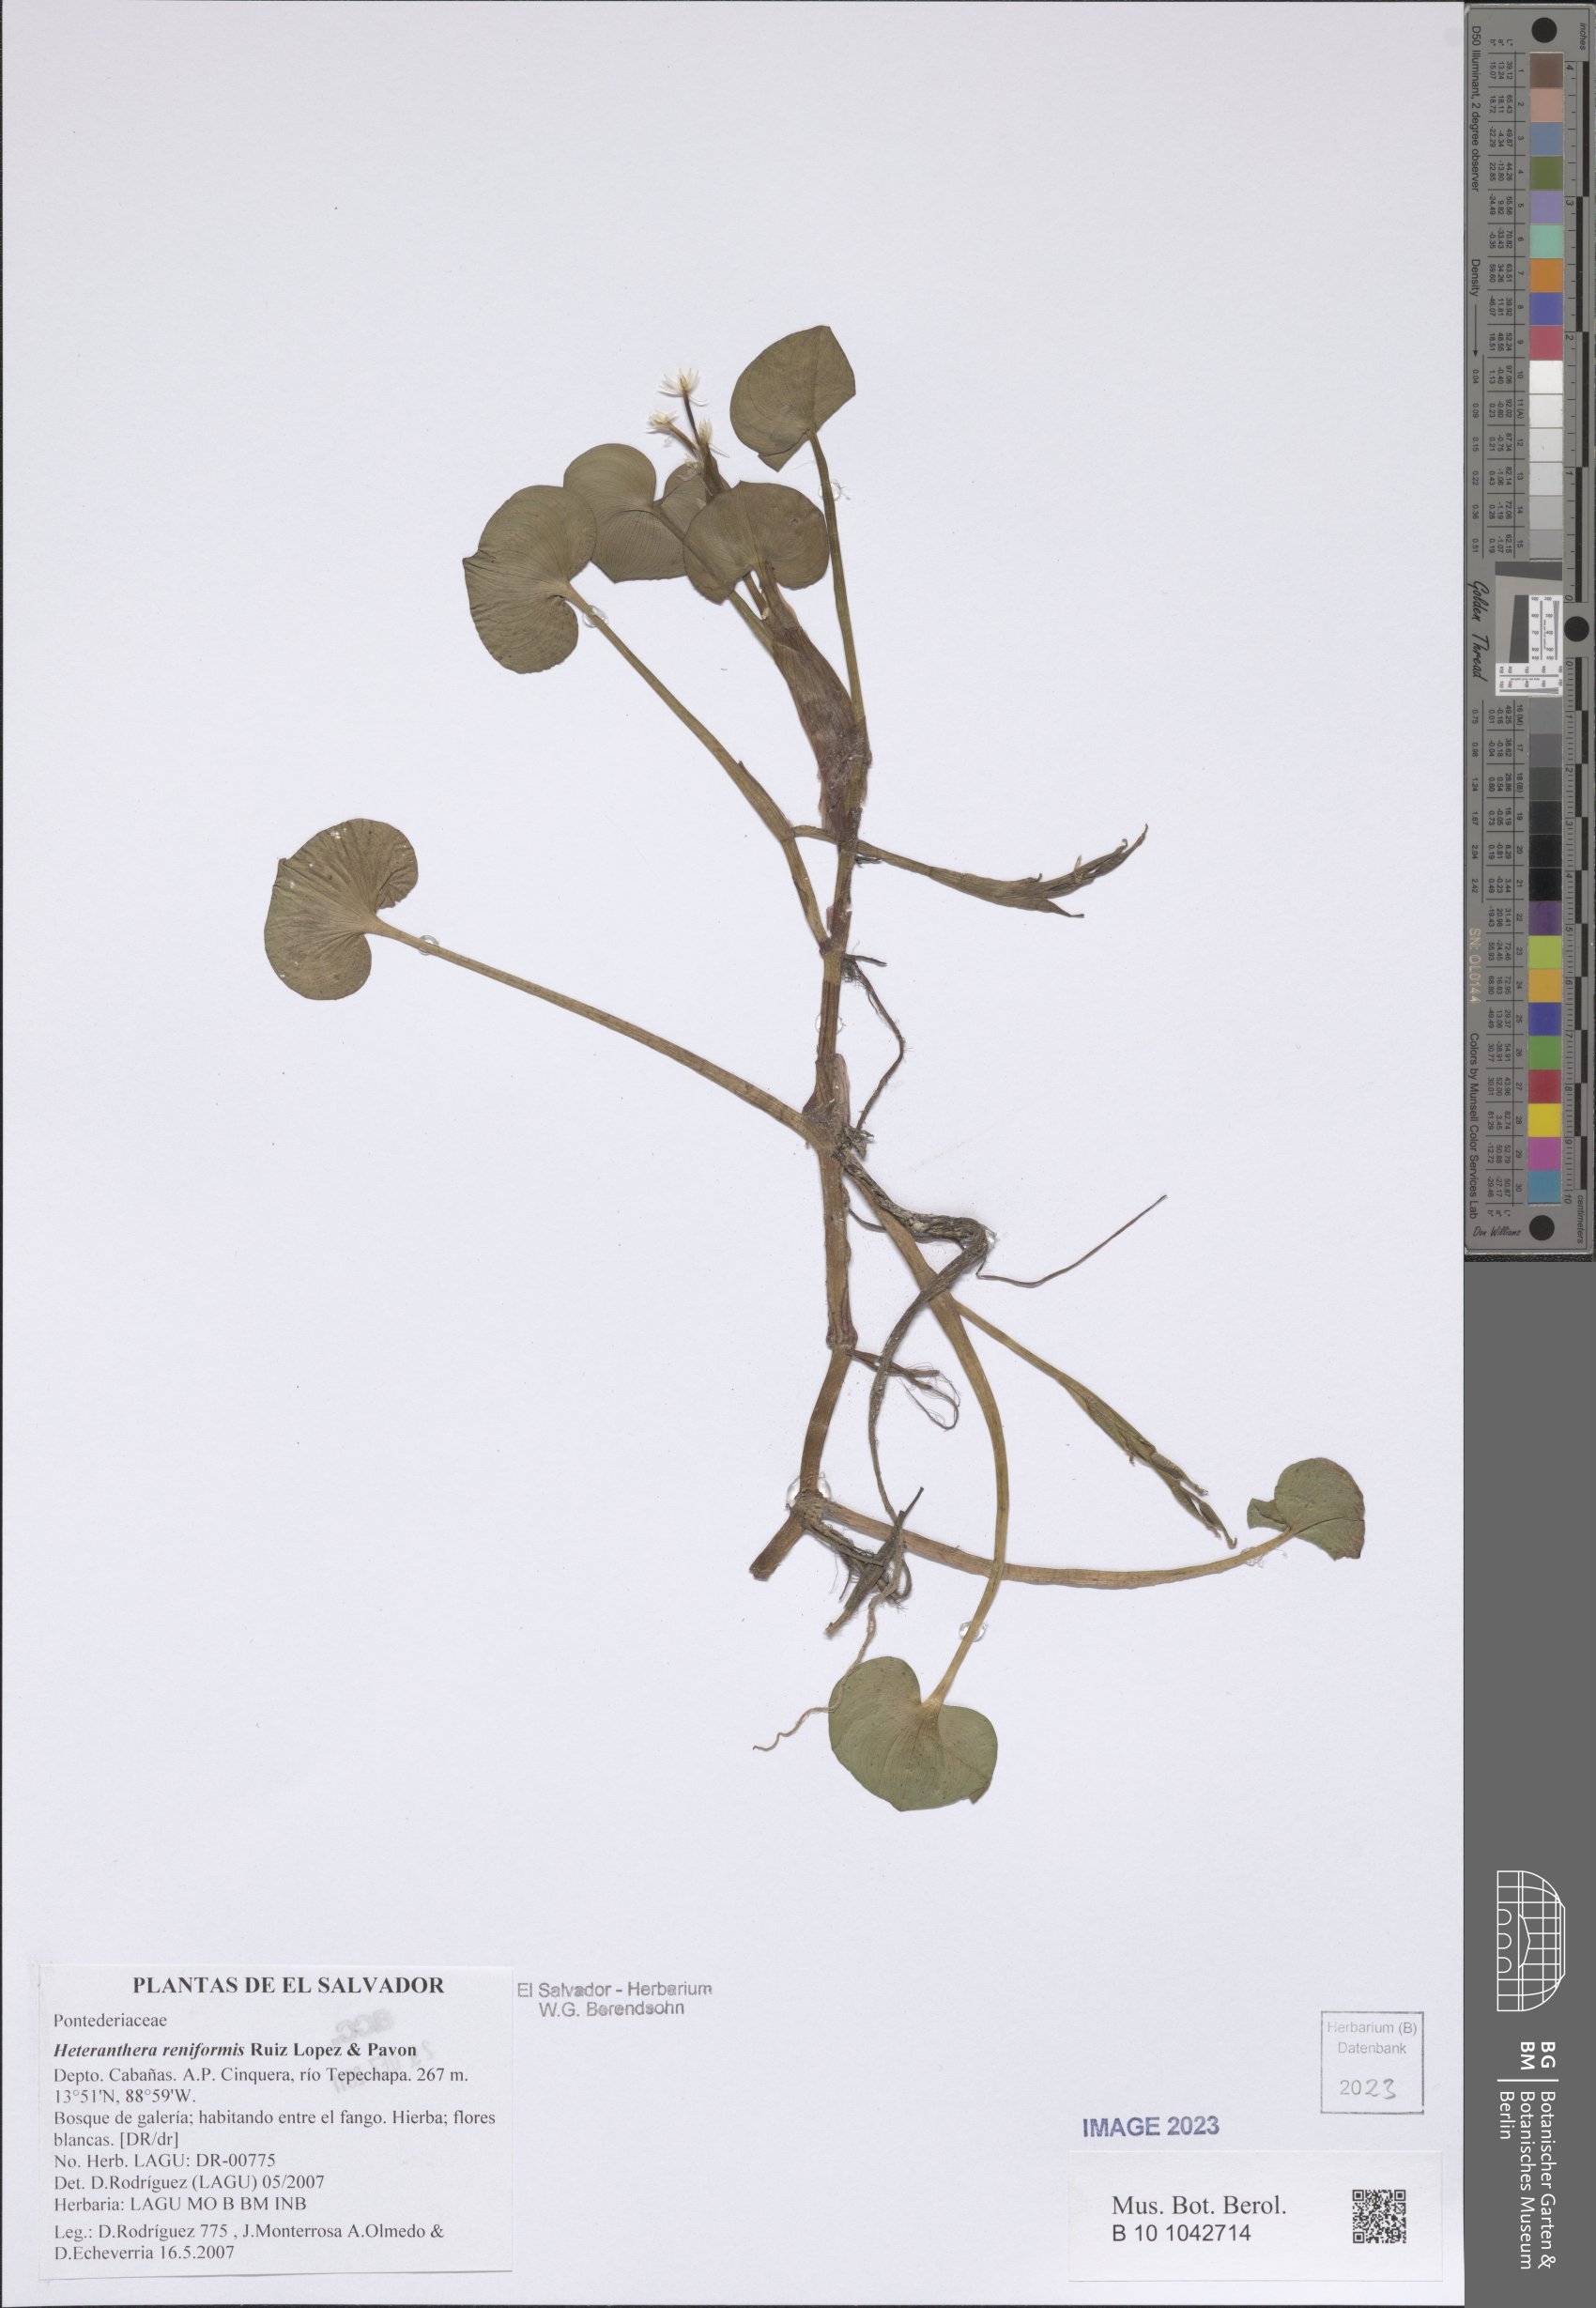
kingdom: Plantae
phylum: Tracheophyta
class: Liliopsida
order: Commelinales
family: Pontederiaceae
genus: Heteranthera
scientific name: Heteranthera reniformis
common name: Kidneyleaf mudplantain
